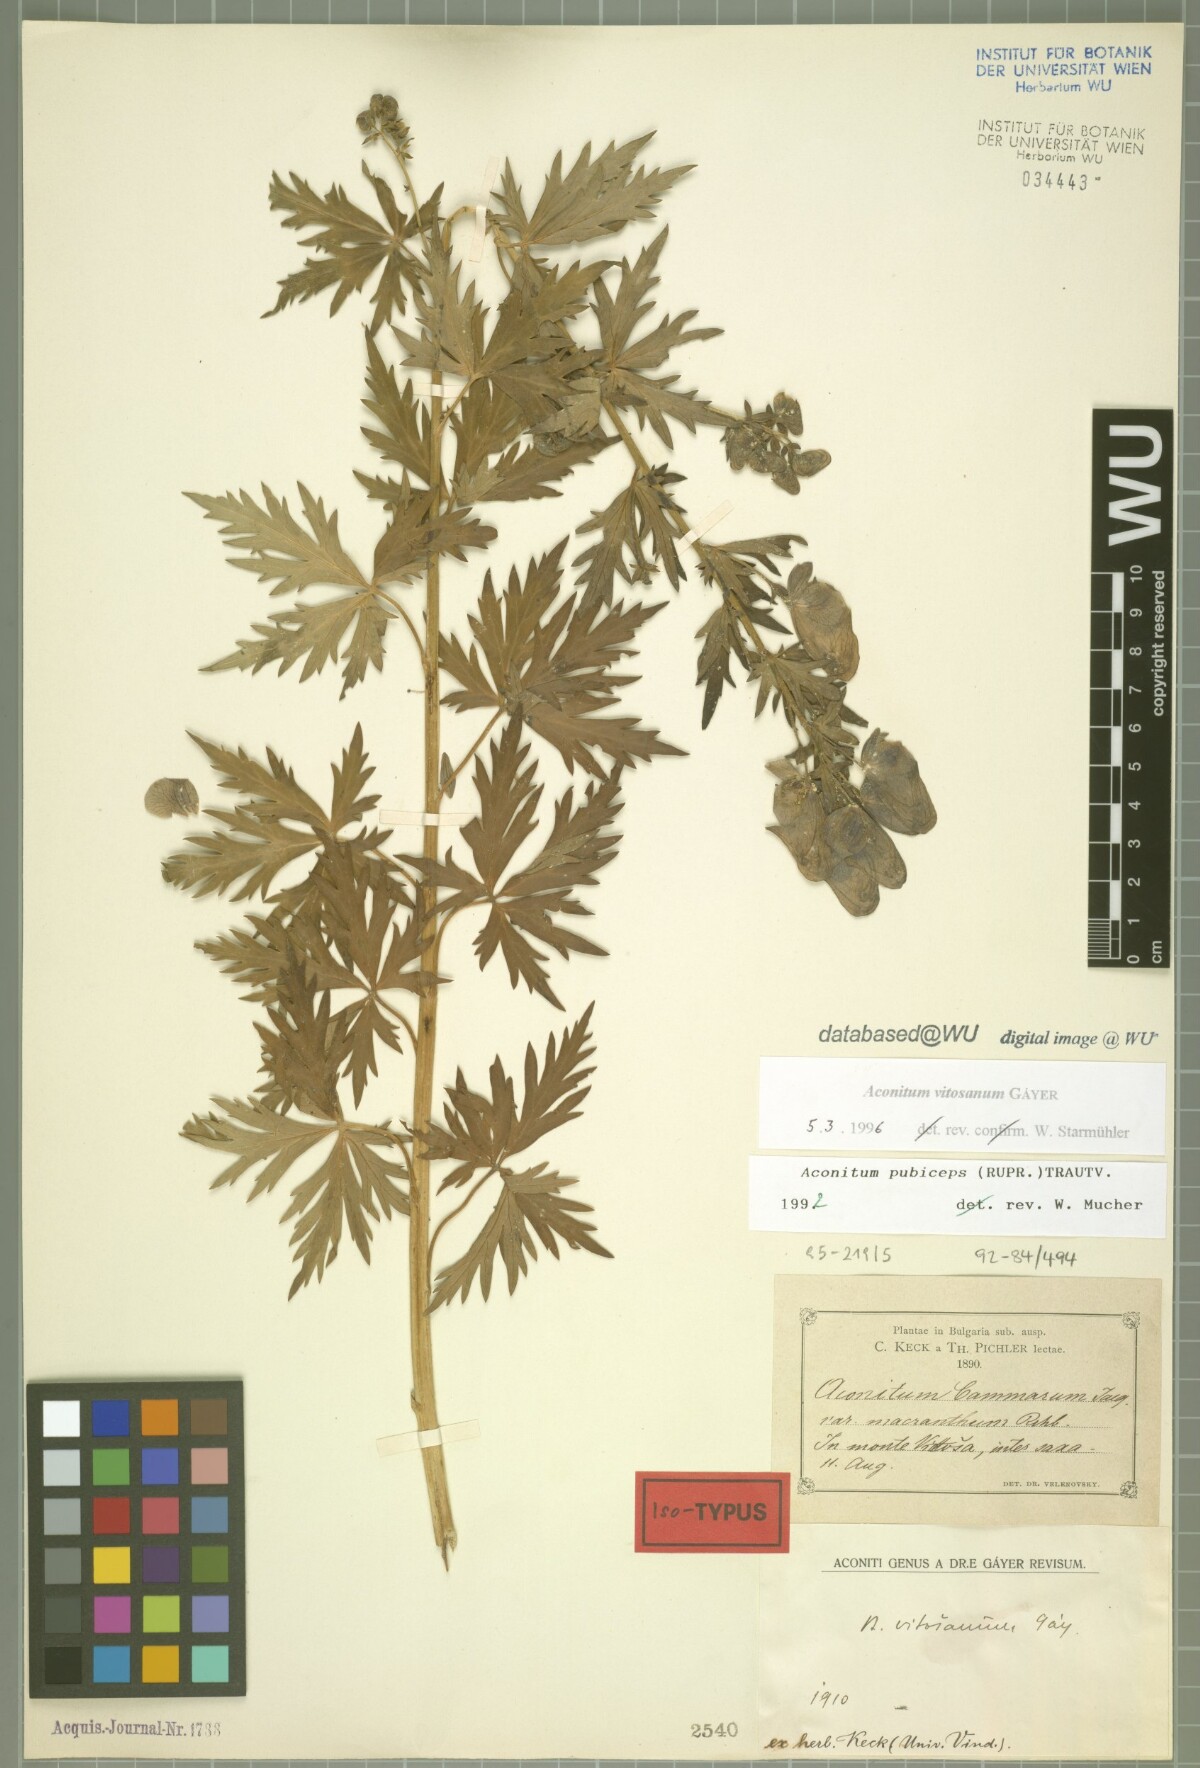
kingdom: Plantae
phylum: Tracheophyta
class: Magnoliopsida
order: Ranunculales
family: Ranunculaceae
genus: Aconitum
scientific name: Aconitum vitosanum
